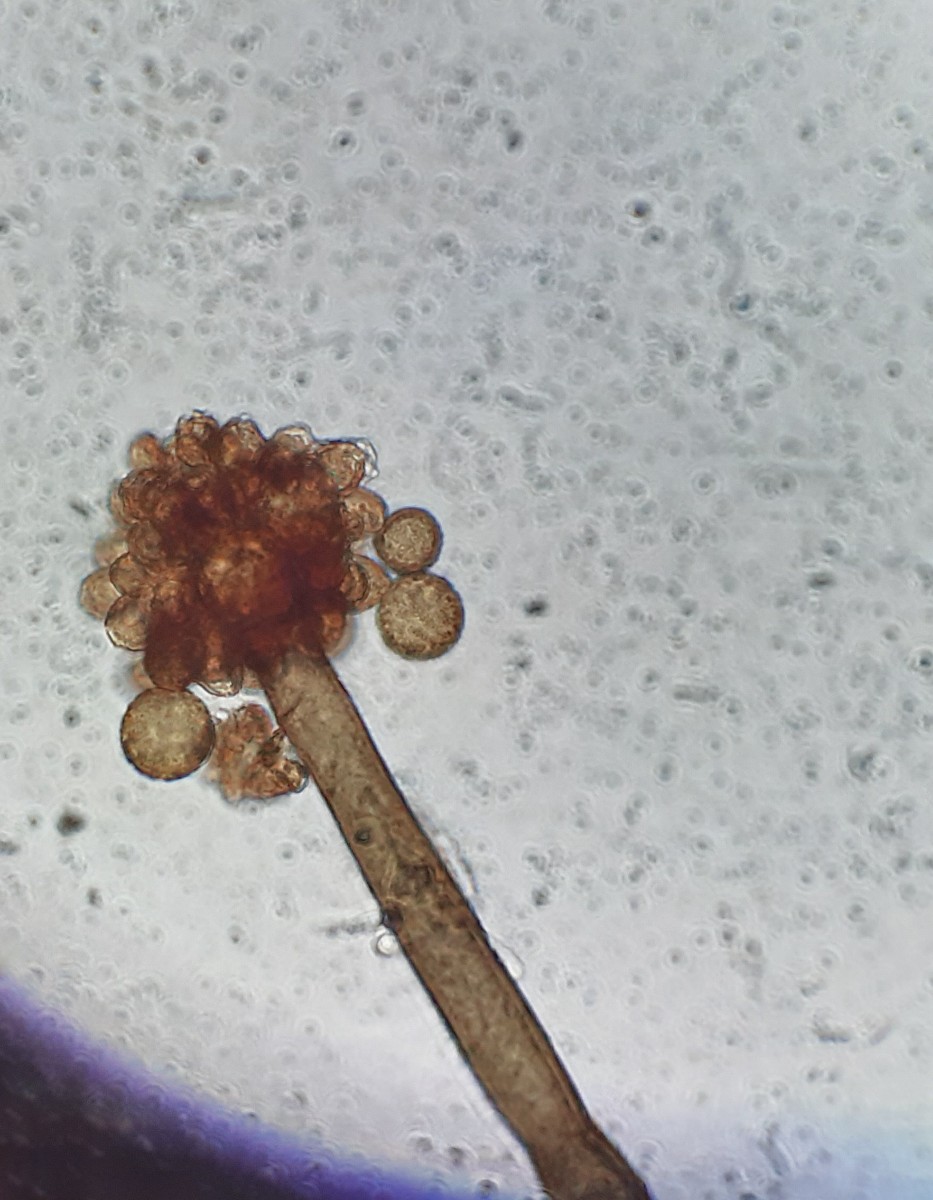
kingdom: Fungi
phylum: Ascomycota
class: Dothideomycetes
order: Pleosporales
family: Periconiaceae
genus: Periconia
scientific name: Periconia
